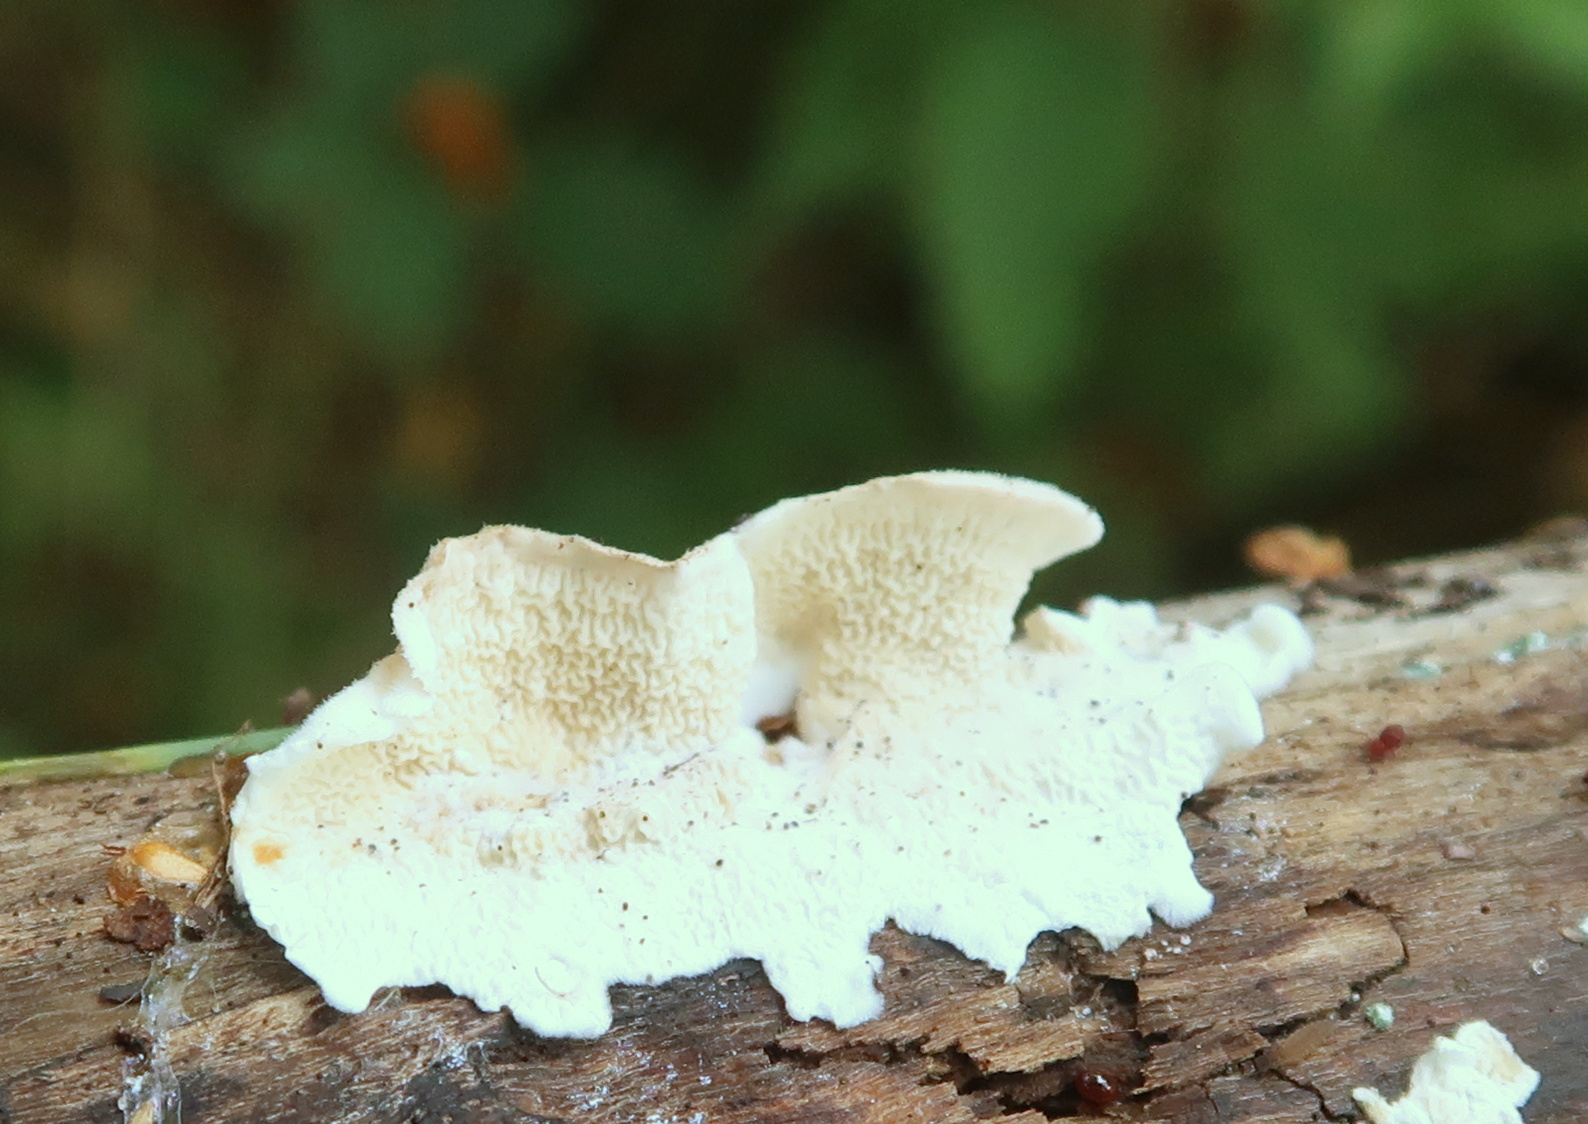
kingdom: Fungi
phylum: Basidiomycota
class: Agaricomycetes
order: Polyporales
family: Irpicaceae
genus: Byssomerulius
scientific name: Byssomerulius corium
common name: læder-åresvamp
